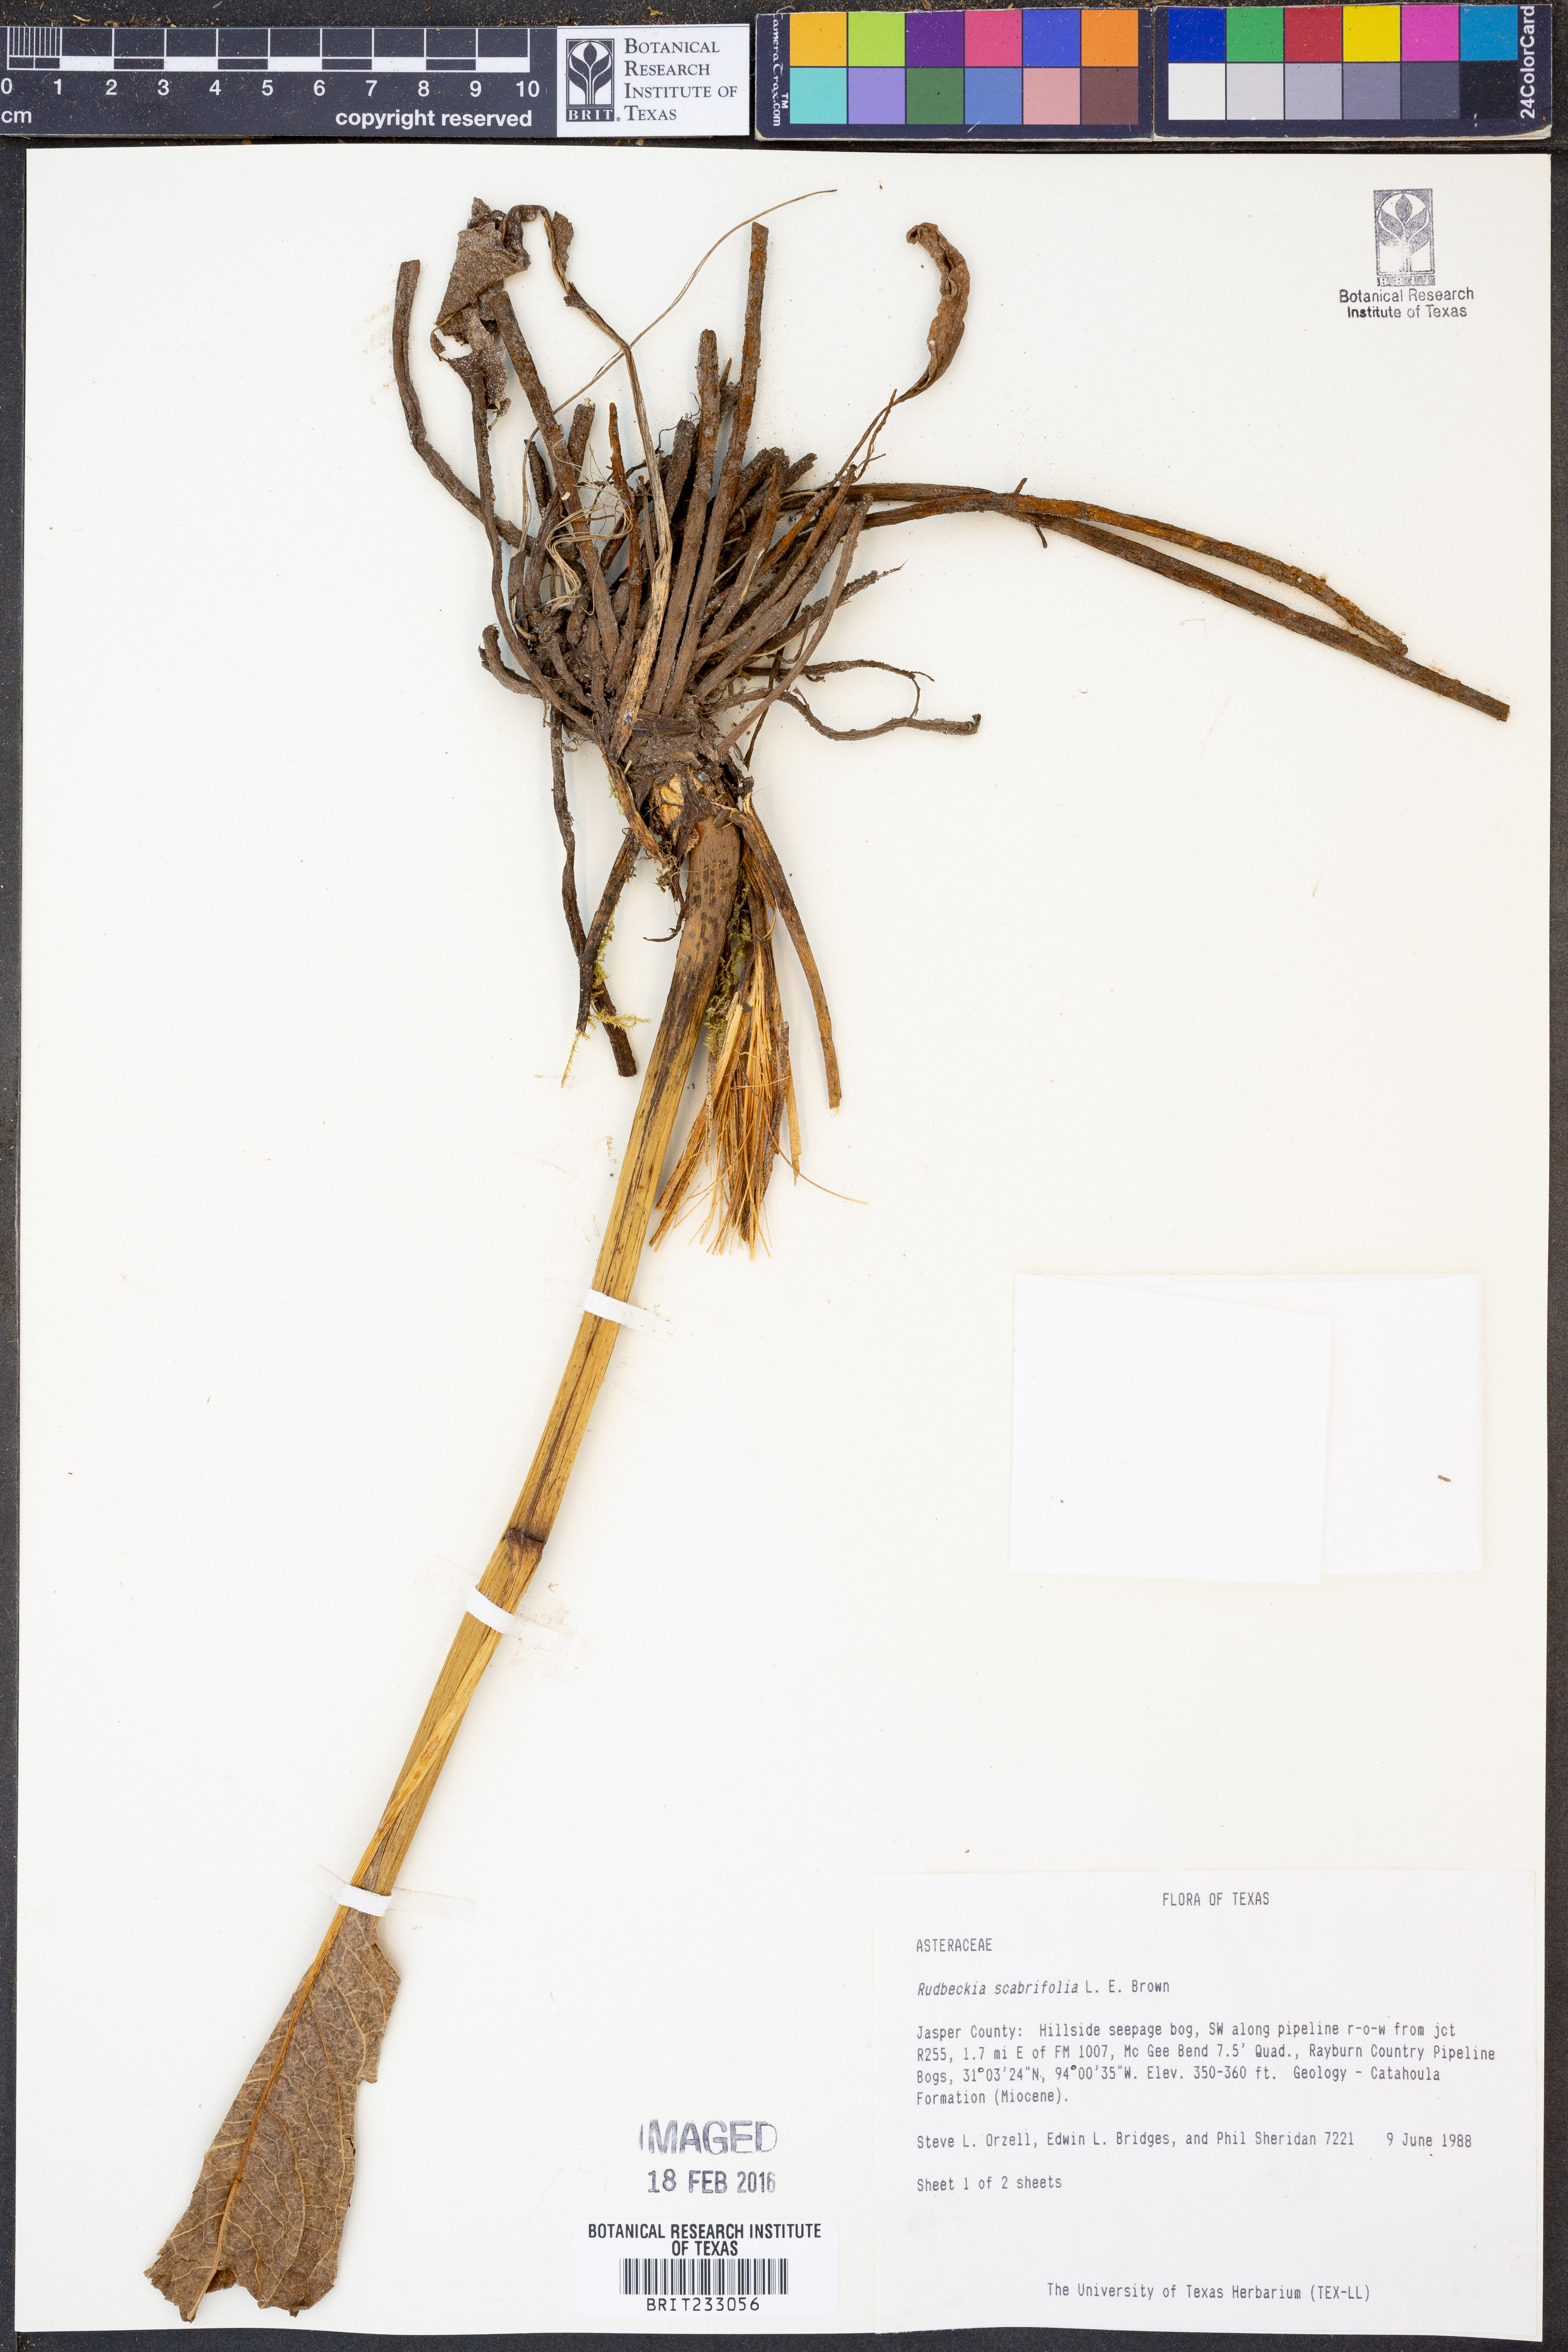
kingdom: Plantae
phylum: Tracheophyta
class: Magnoliopsida
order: Asterales
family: Asteraceae
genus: Rudbeckia
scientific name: Rudbeckia scabrifolia
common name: Rough-leaf coneflower
